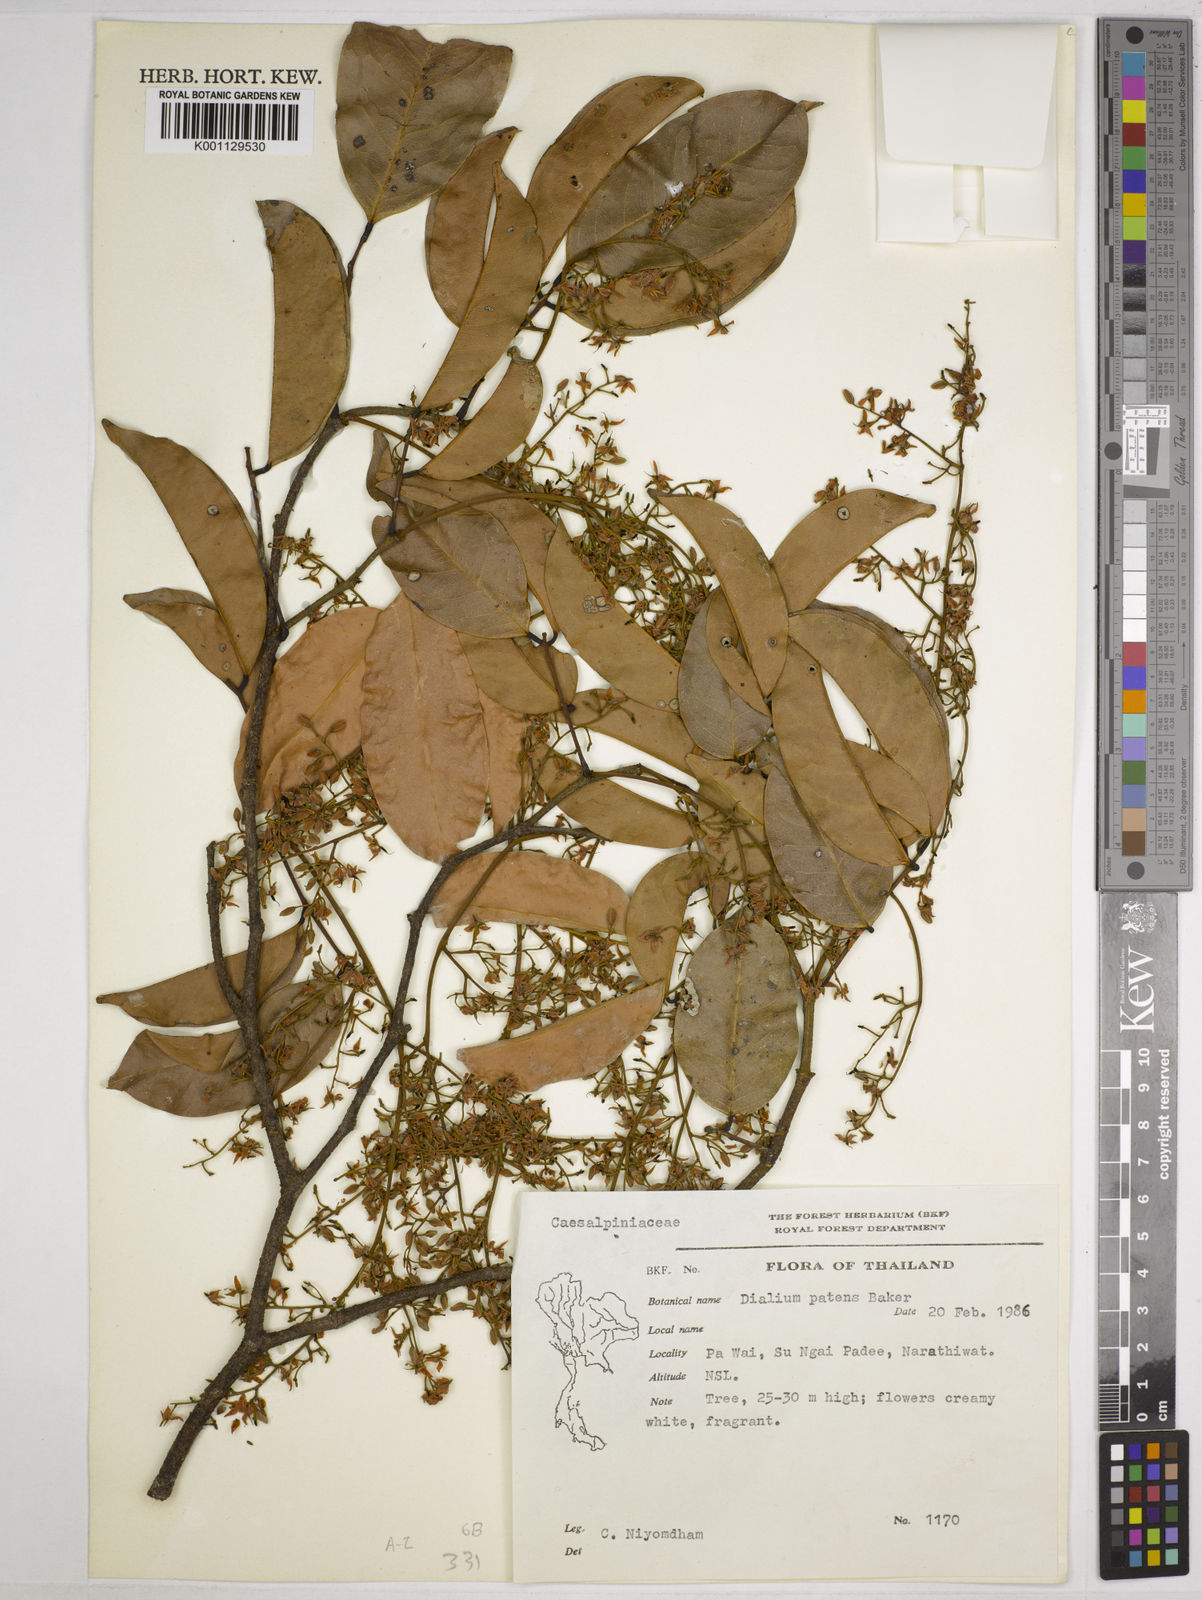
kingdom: Plantae
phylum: Tracheophyta
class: Magnoliopsida
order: Fabales
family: Fabaceae
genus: Dialium
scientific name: Dialium indum
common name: Tamarind-plum
